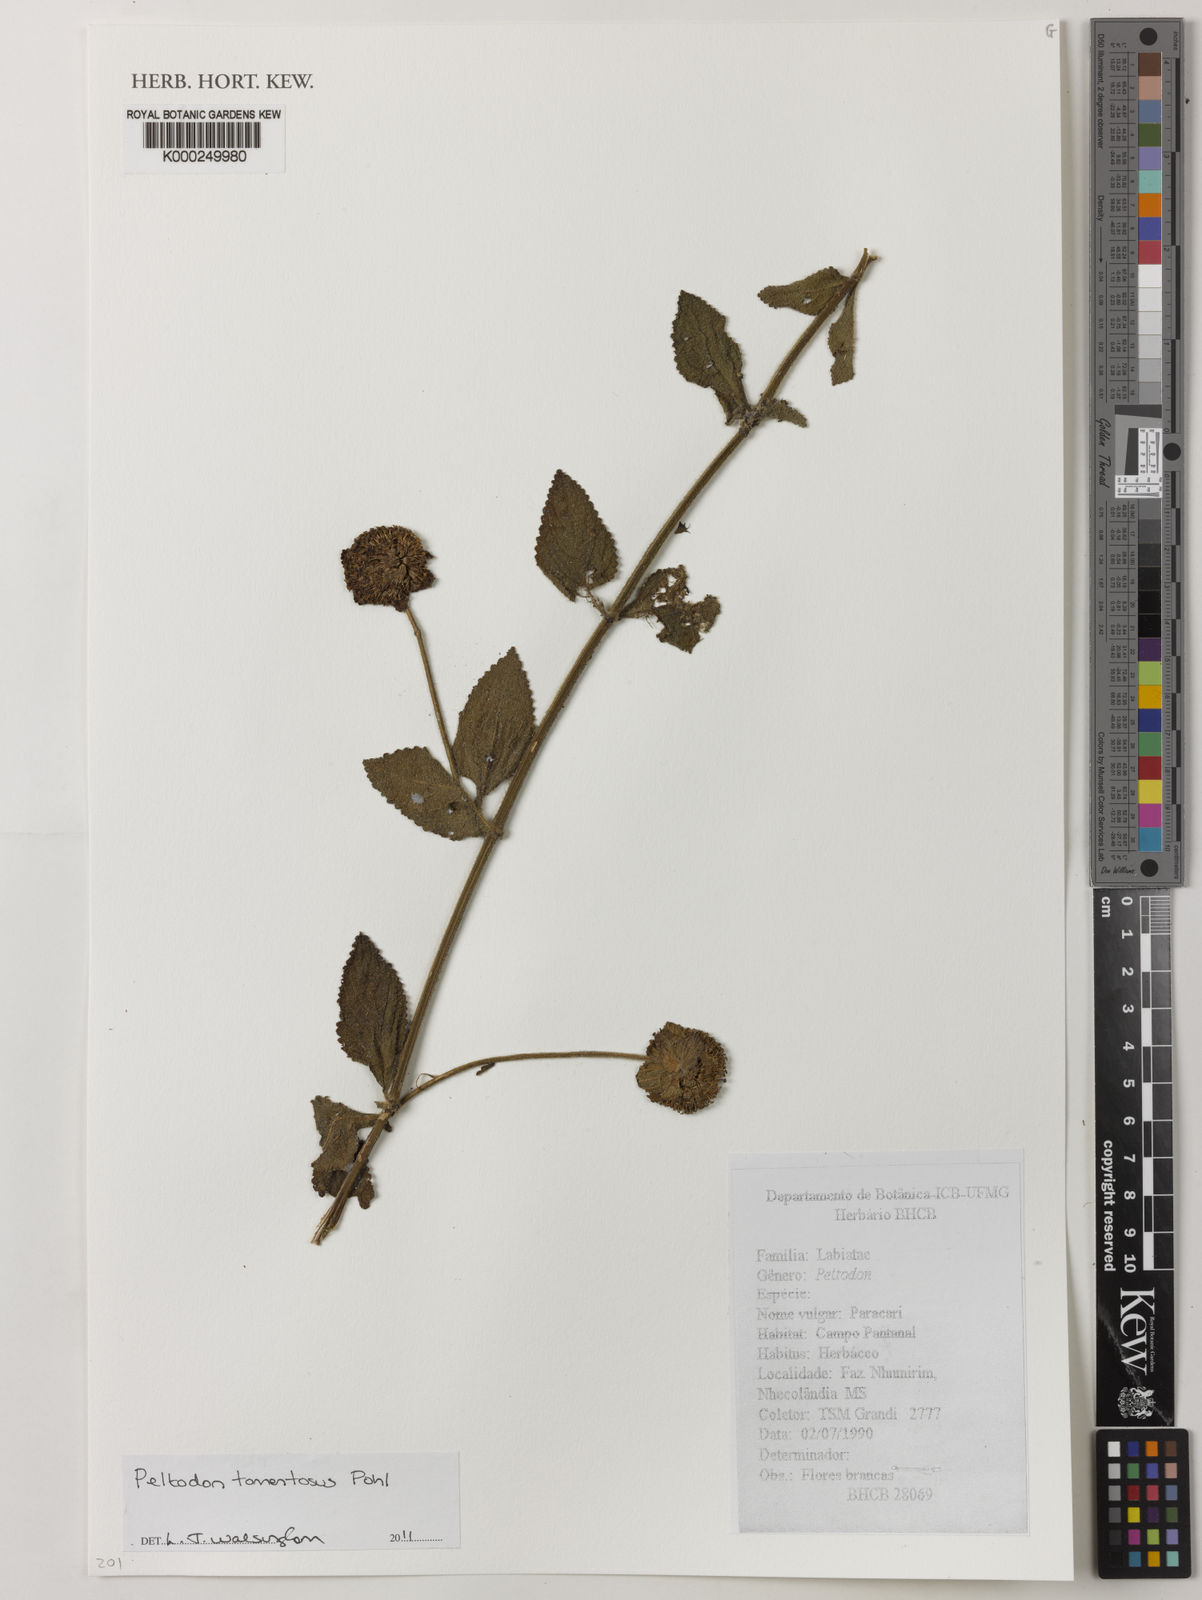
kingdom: Plantae
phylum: Tracheophyta
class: Magnoliopsida
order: Lamiales
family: Lamiaceae
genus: Hyptis
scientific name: Hyptis campestris
